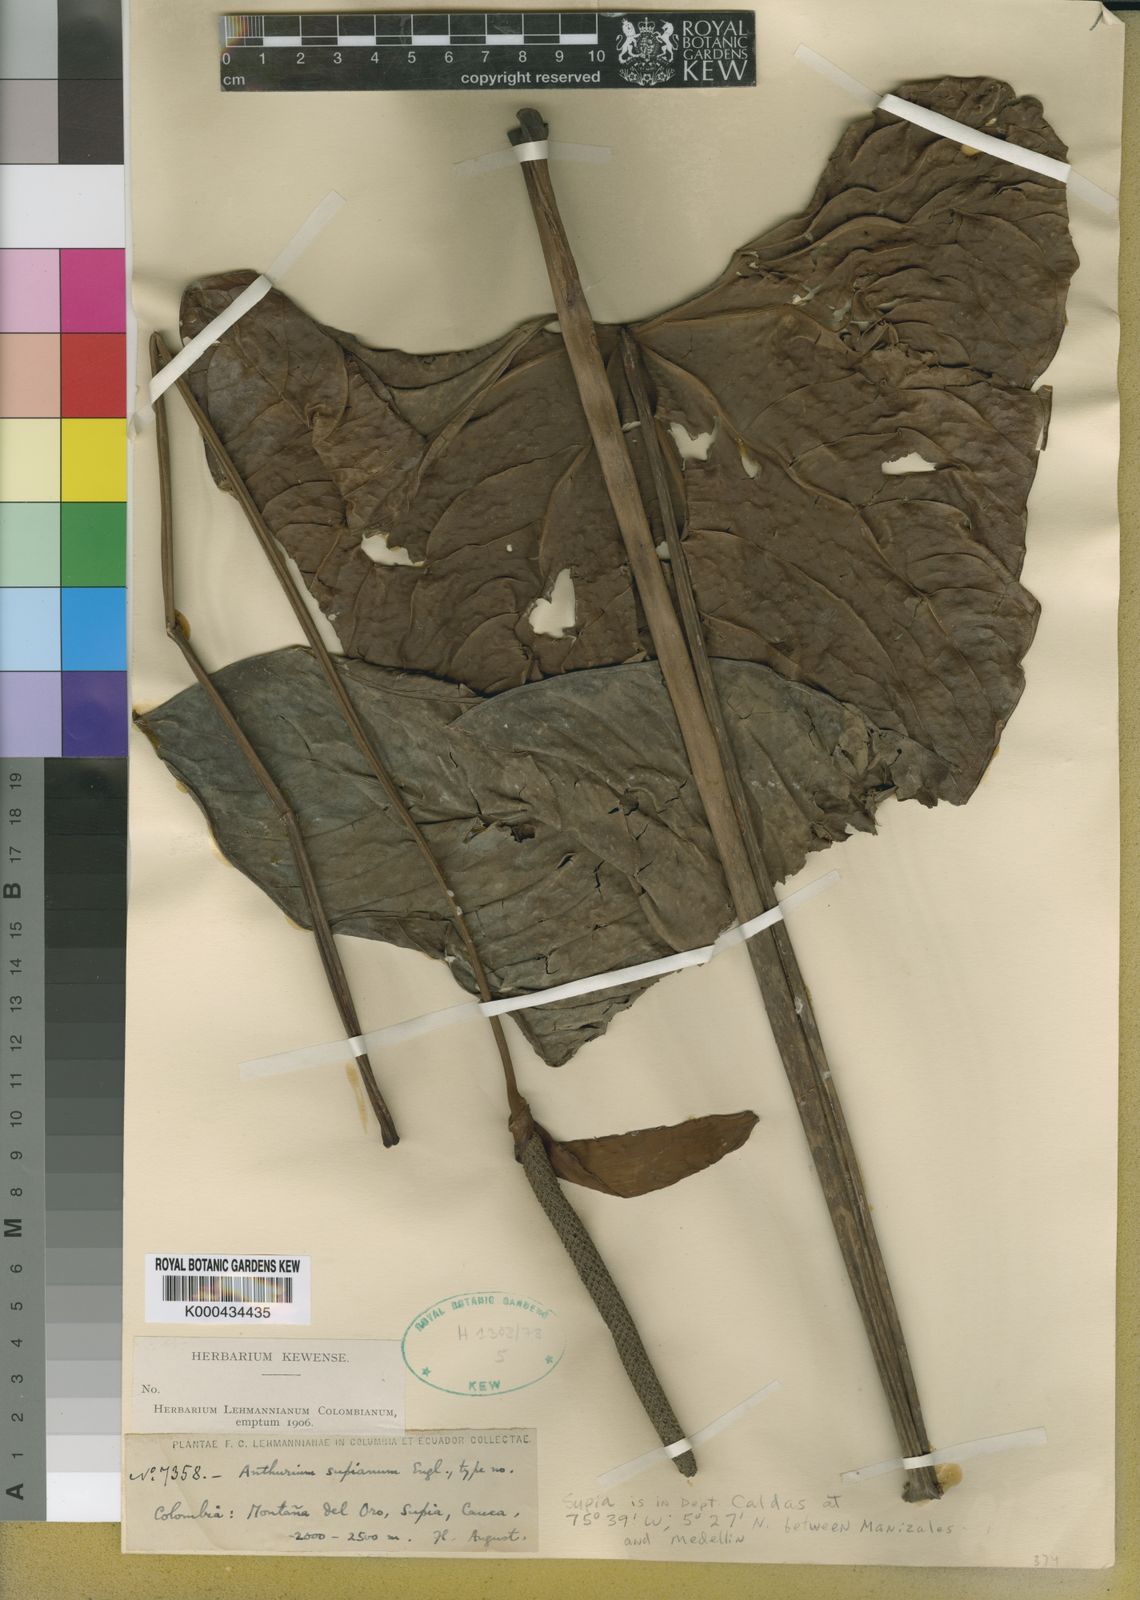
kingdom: Plantae
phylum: Tracheophyta
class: Liliopsida
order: Alismatales
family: Araceae
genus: Anthurium
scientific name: Anthurium supianum
